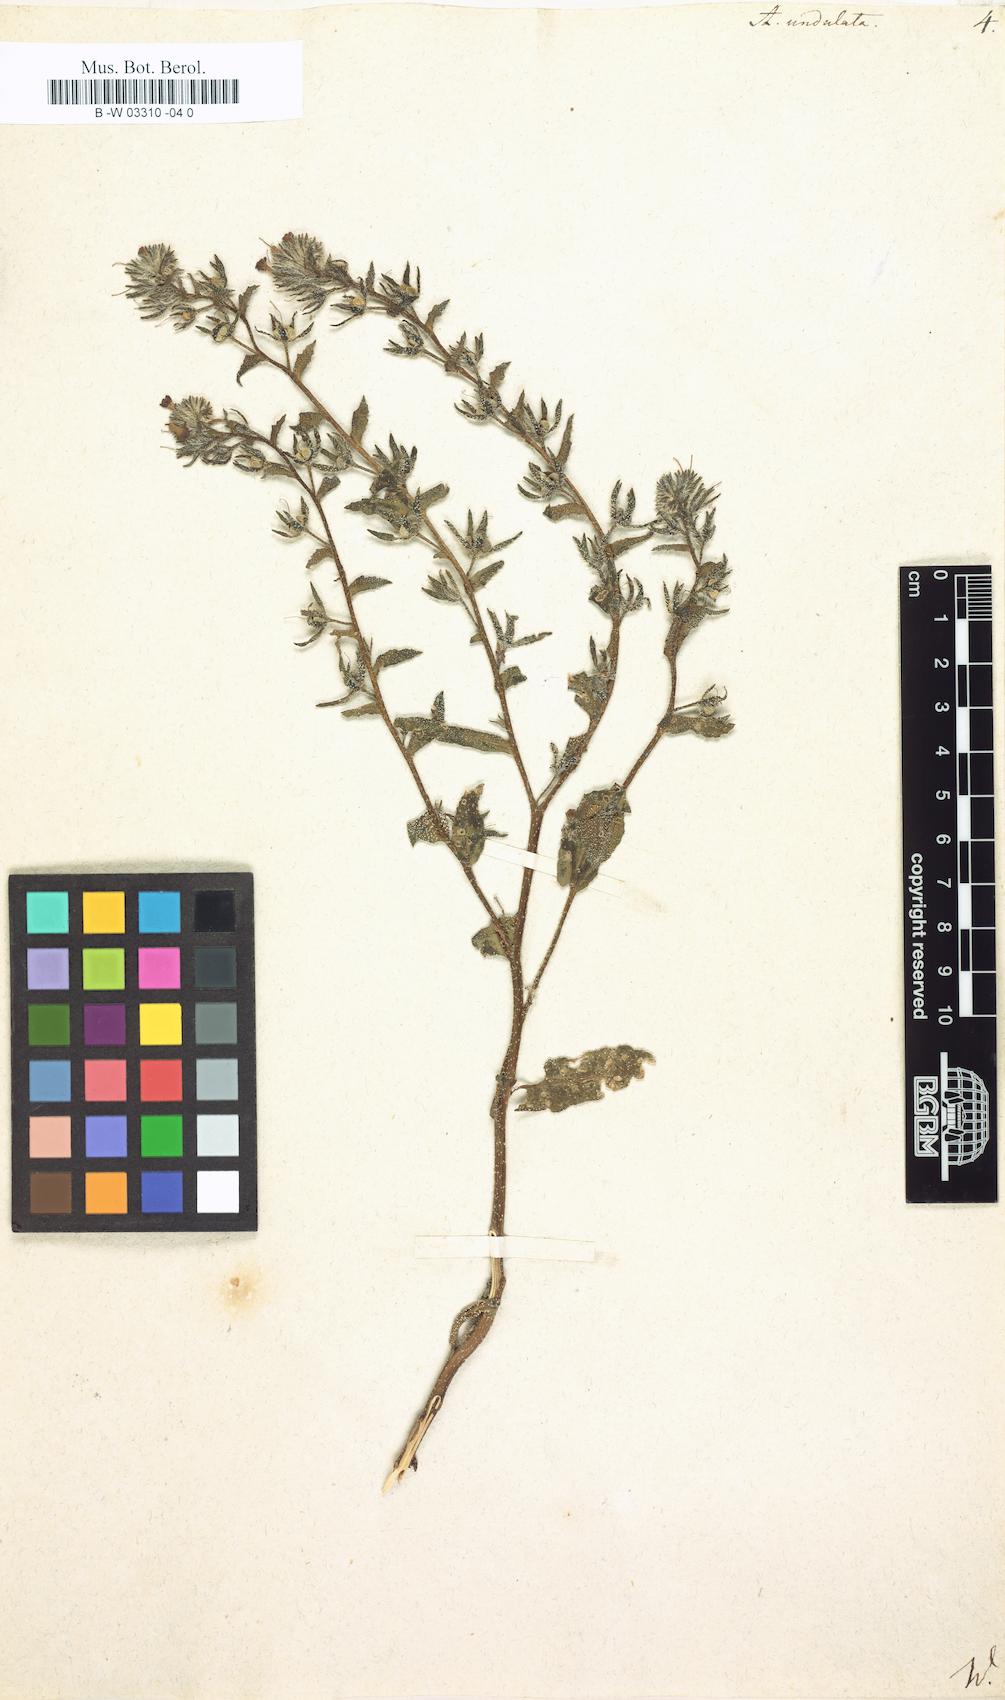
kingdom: Plantae
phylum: Tracheophyta
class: Magnoliopsida
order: Boraginales
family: Boraginaceae
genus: Anchusa
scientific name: Anchusa undulata
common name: Undulate alkanet
